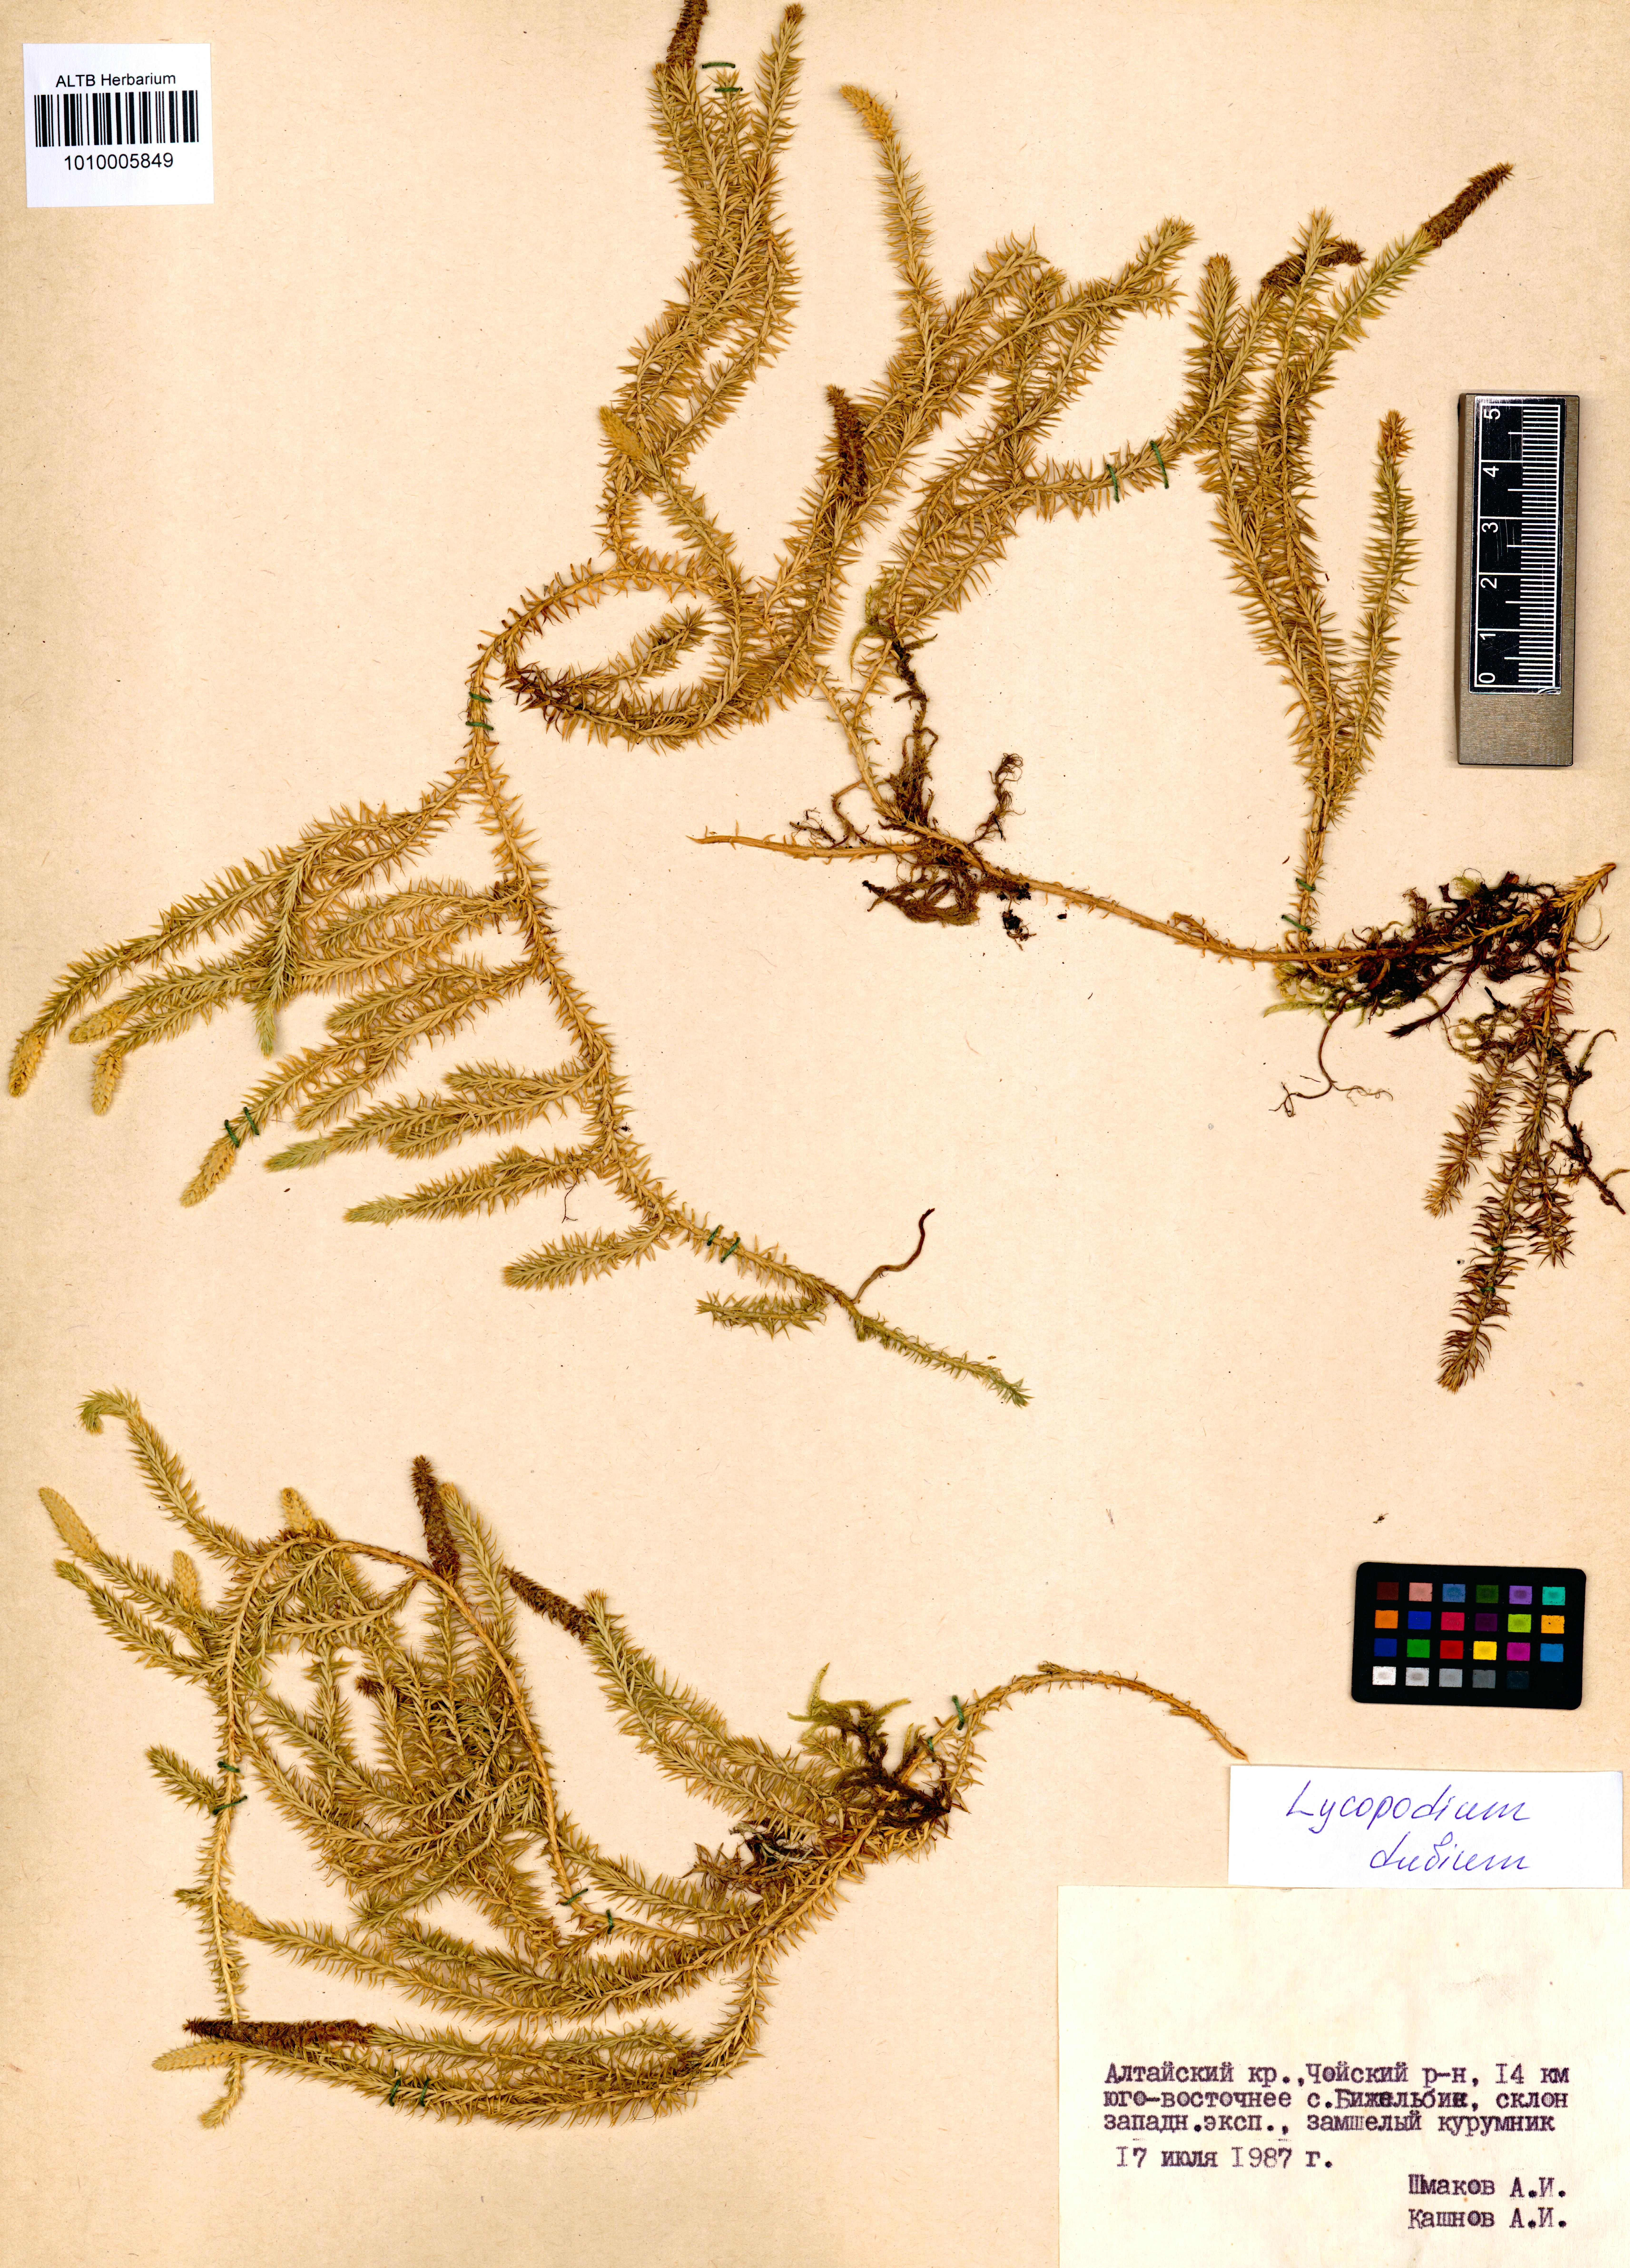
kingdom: Plantae
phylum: Tracheophyta
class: Lycopodiopsida
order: Lycopodiales
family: Lycopodiaceae
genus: Spinulum
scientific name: Spinulum annotinum
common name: Interrupted club-moss
